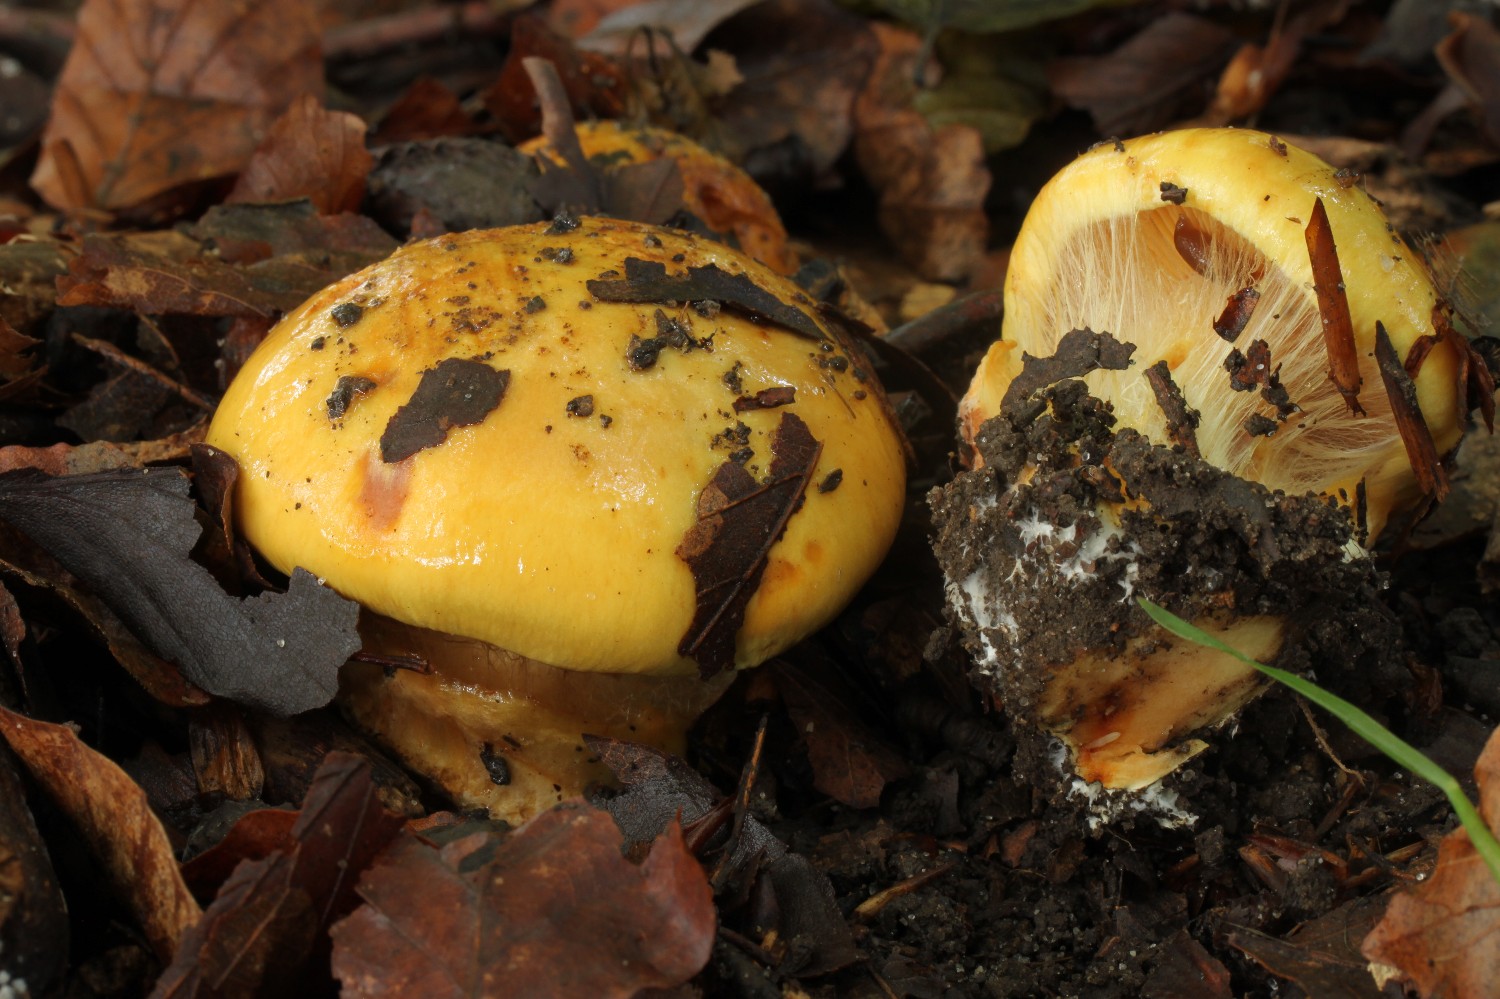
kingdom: Fungi
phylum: Basidiomycota
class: Agaricomycetes
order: Agaricales
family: Cortinariaceae
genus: Calonarius
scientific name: Calonarius olearioides
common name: safran-slørhat
